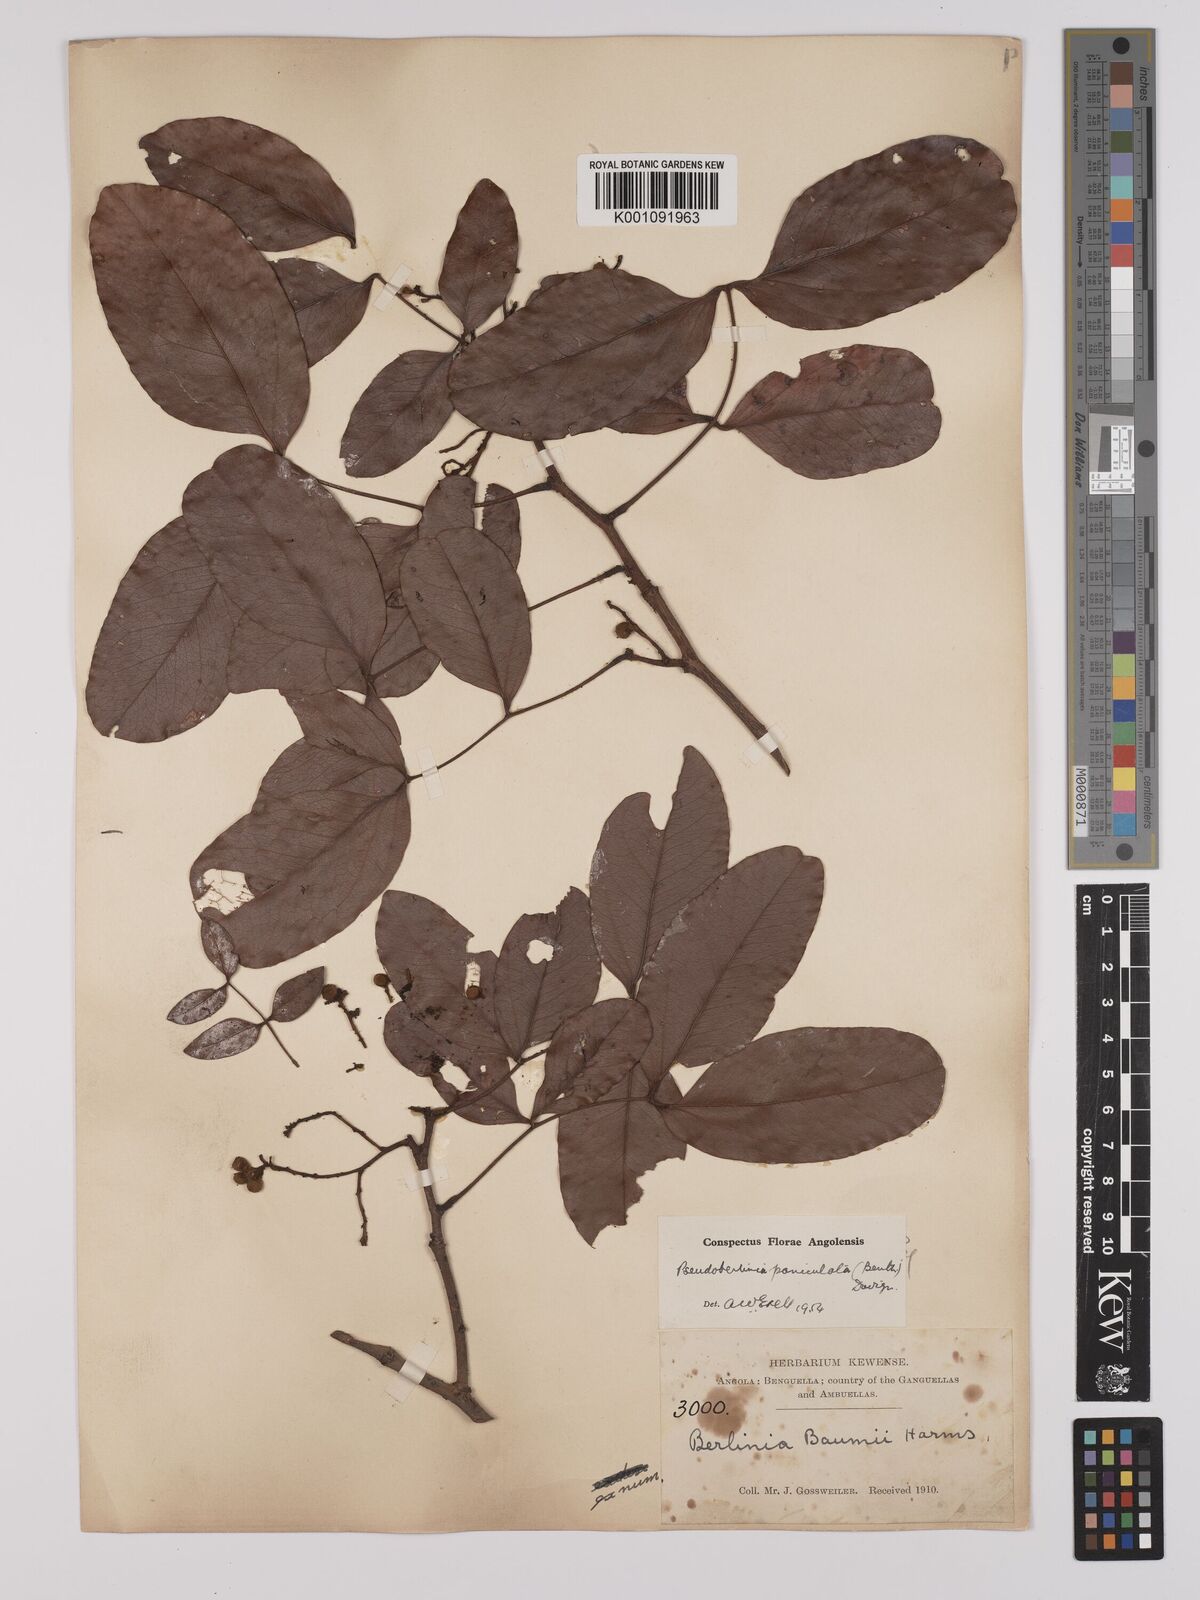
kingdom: Plantae
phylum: Tracheophyta
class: Magnoliopsida
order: Fabales
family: Fabaceae
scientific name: Fabaceae
